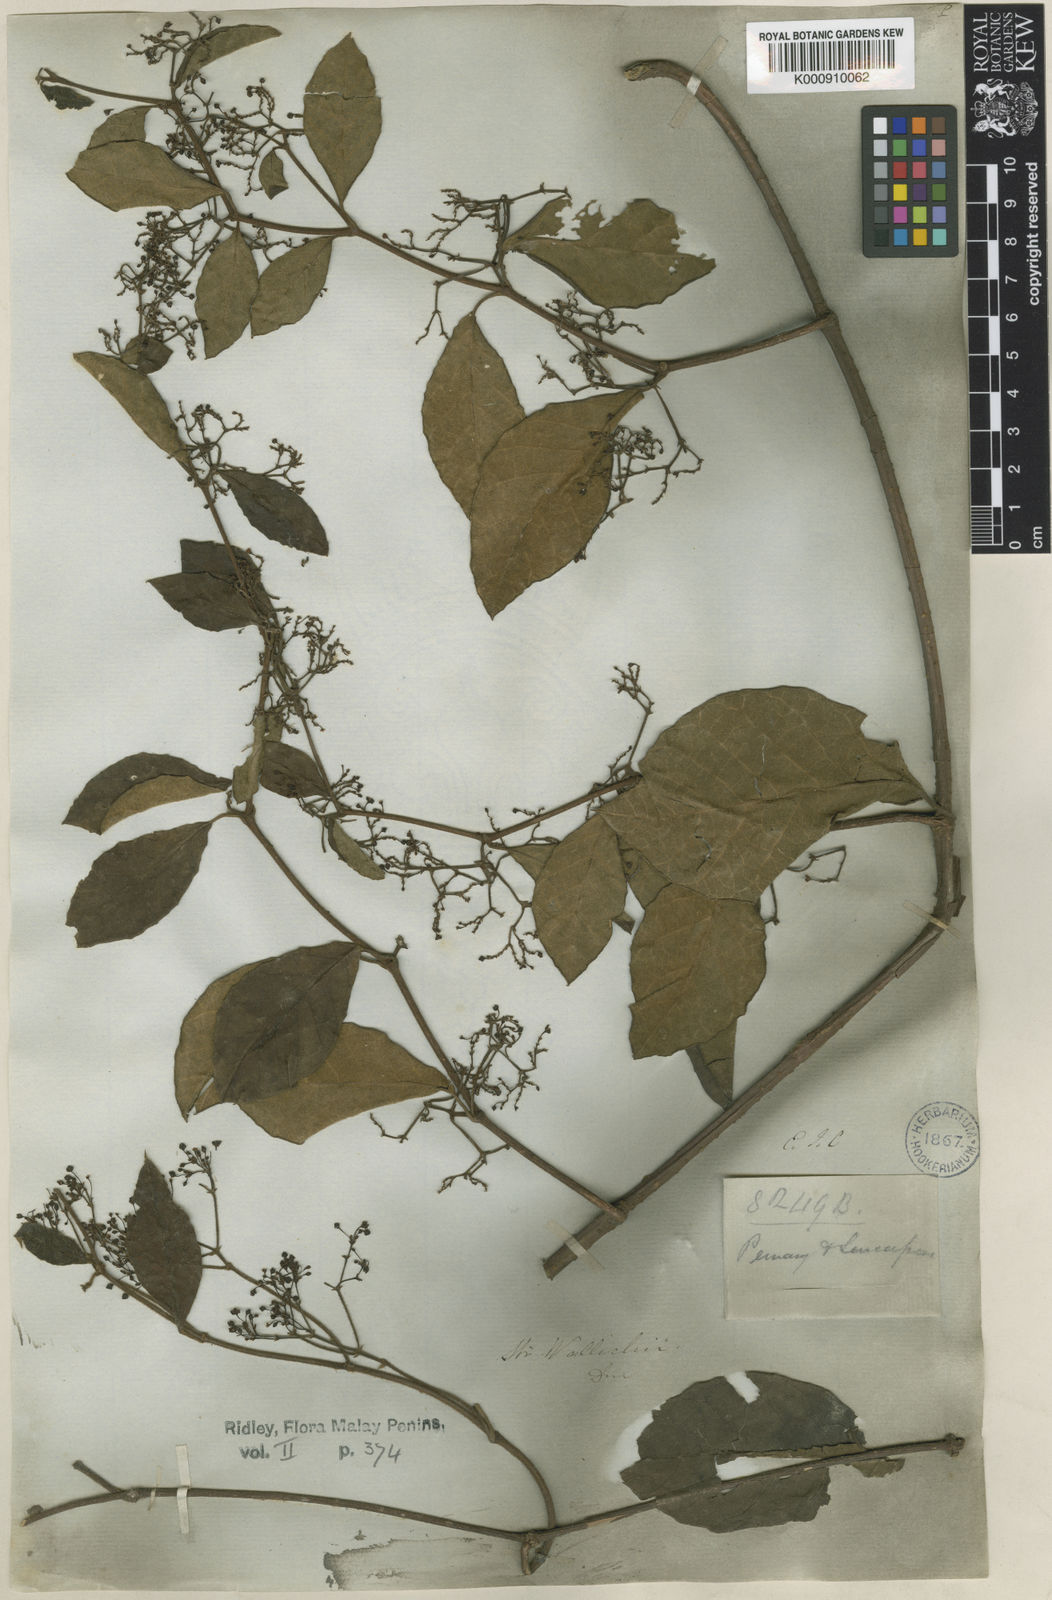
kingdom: Plantae
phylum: Tracheophyta
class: Magnoliopsida
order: Gentianales
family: Apocynaceae
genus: Streptocaulon
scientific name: Streptocaulon wallichii
